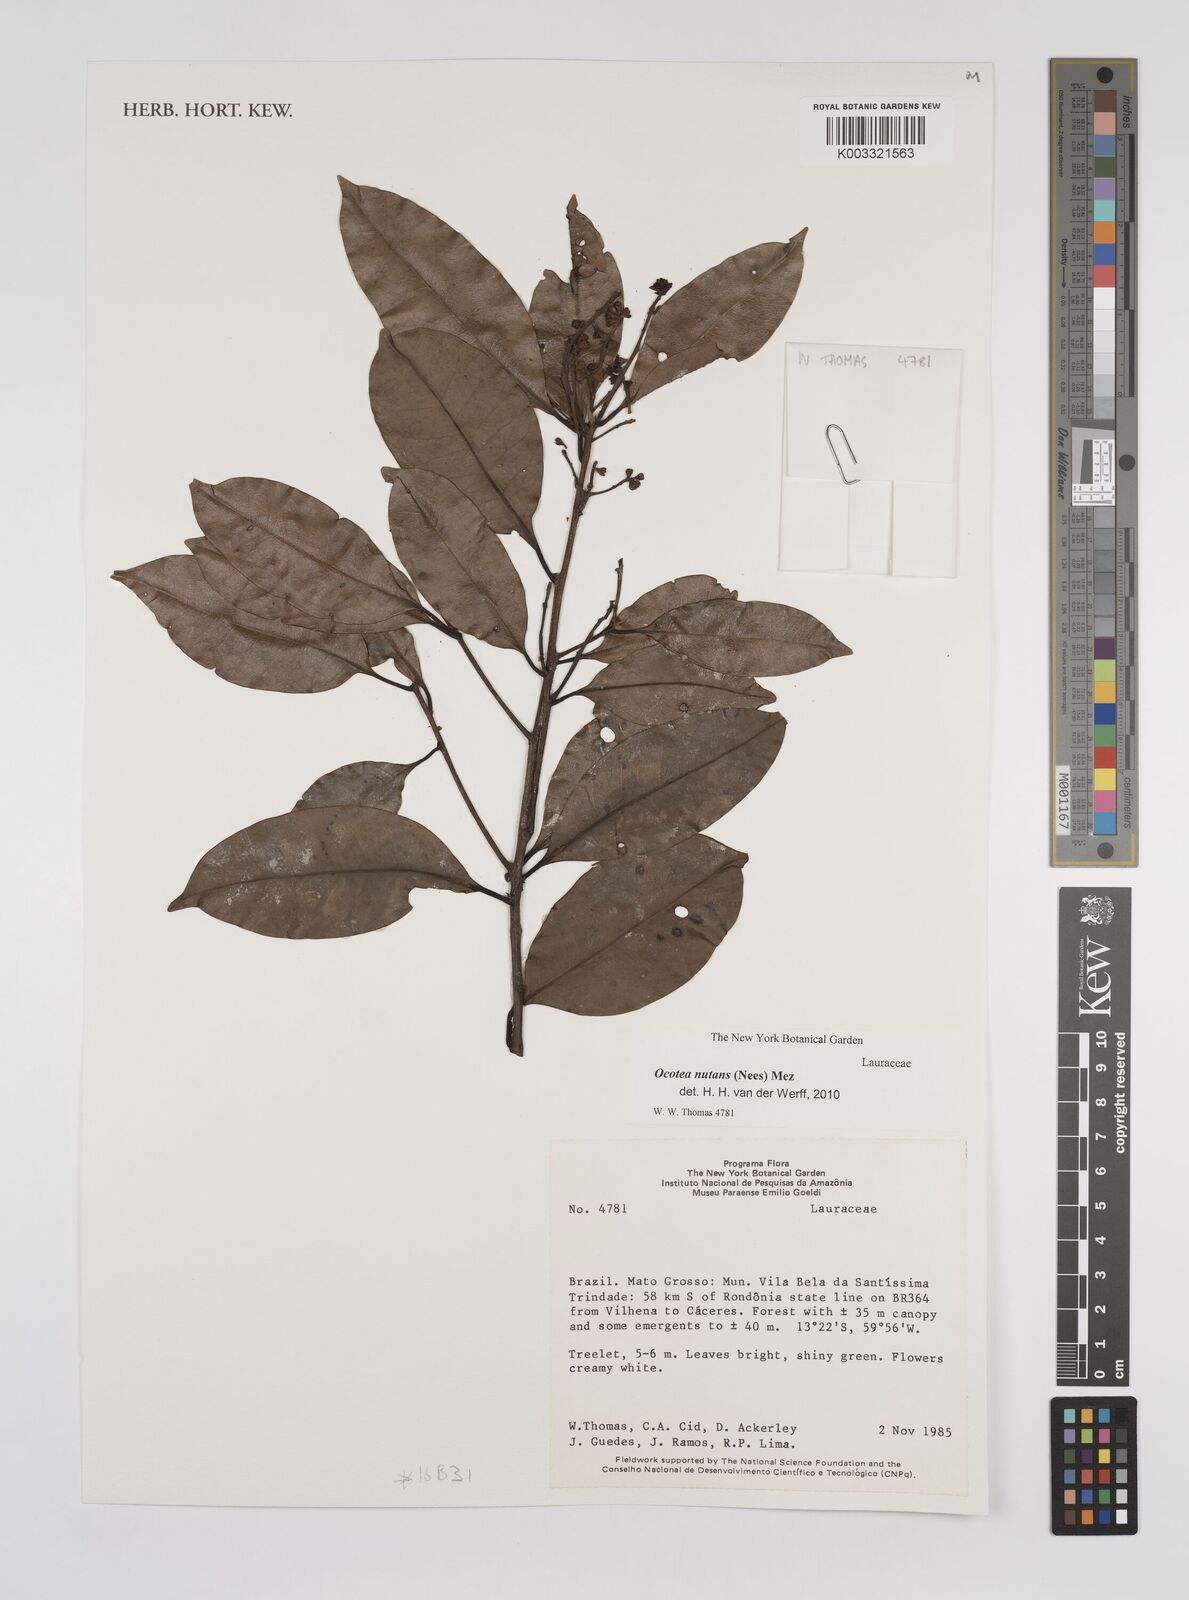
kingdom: Plantae
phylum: Tracheophyta
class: Magnoliopsida
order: Laurales
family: Lauraceae
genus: Mespilodaphne
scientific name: Mespilodaphne nutans
